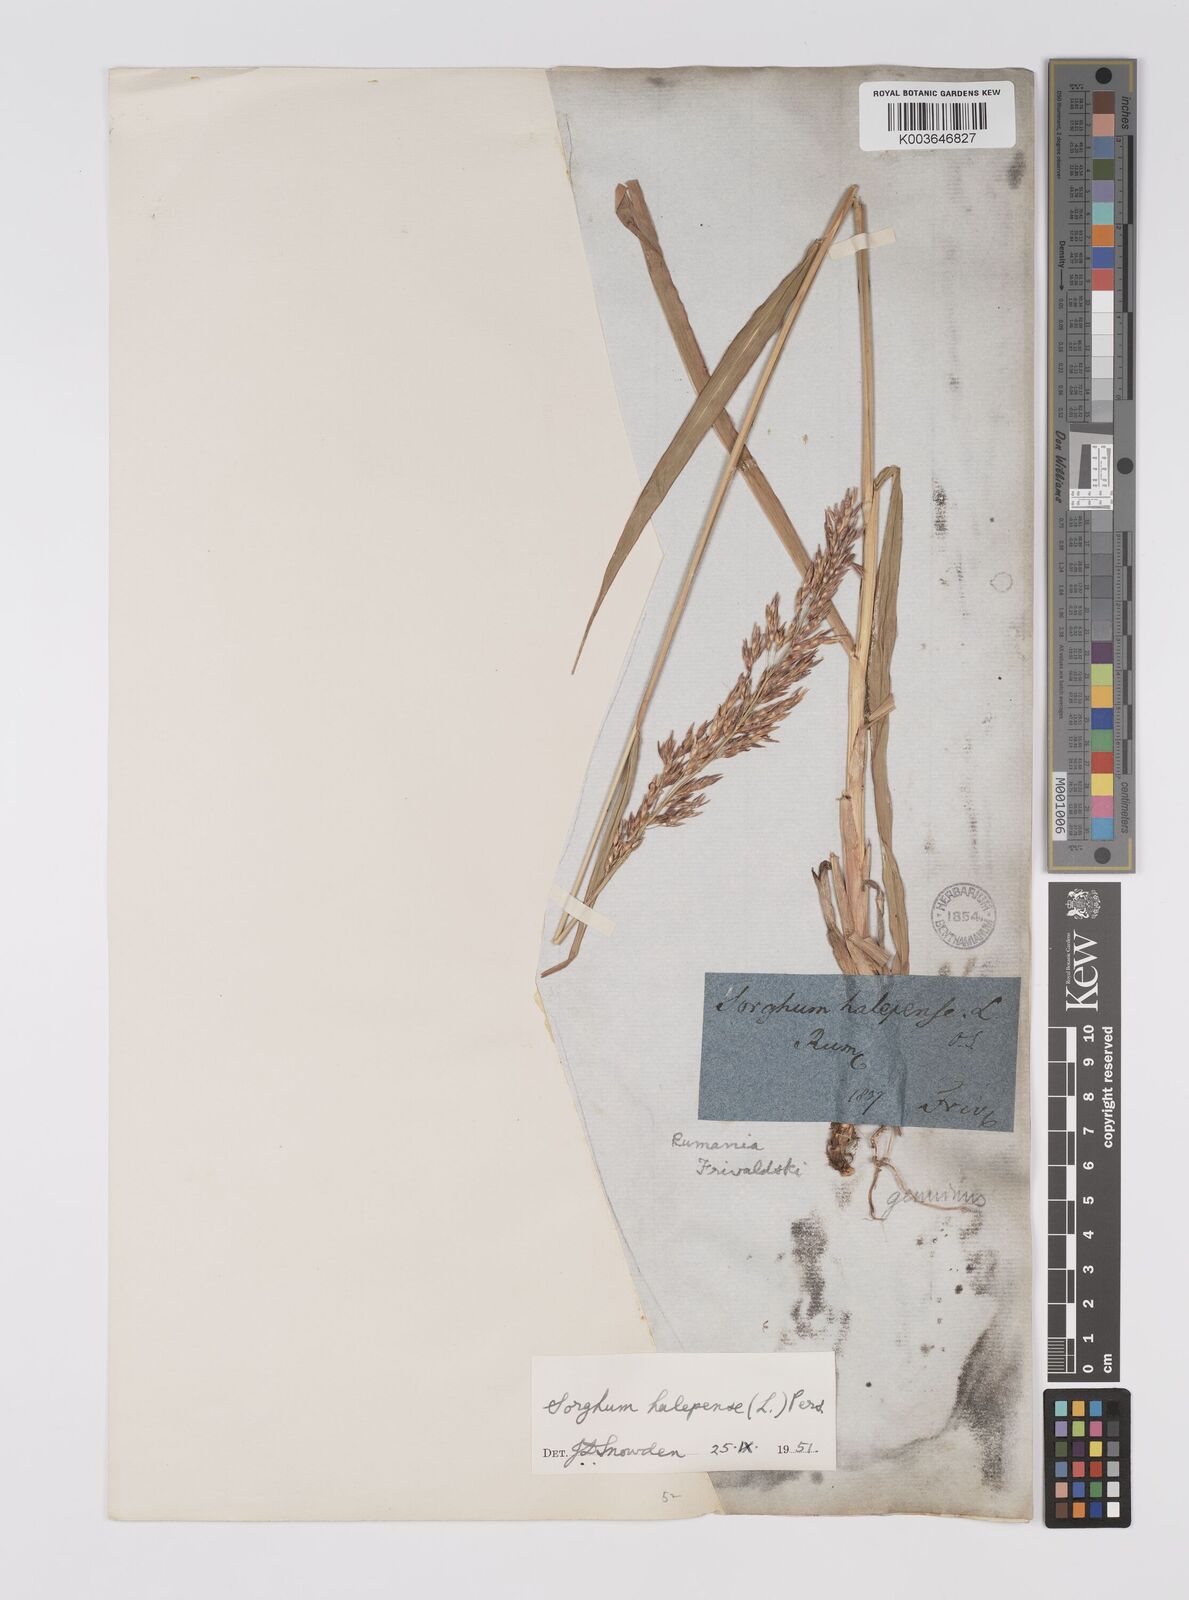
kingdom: Plantae
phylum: Tracheophyta
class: Liliopsida
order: Poales
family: Poaceae
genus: Sorghum
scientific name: Sorghum halepense
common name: Johnson-grass
